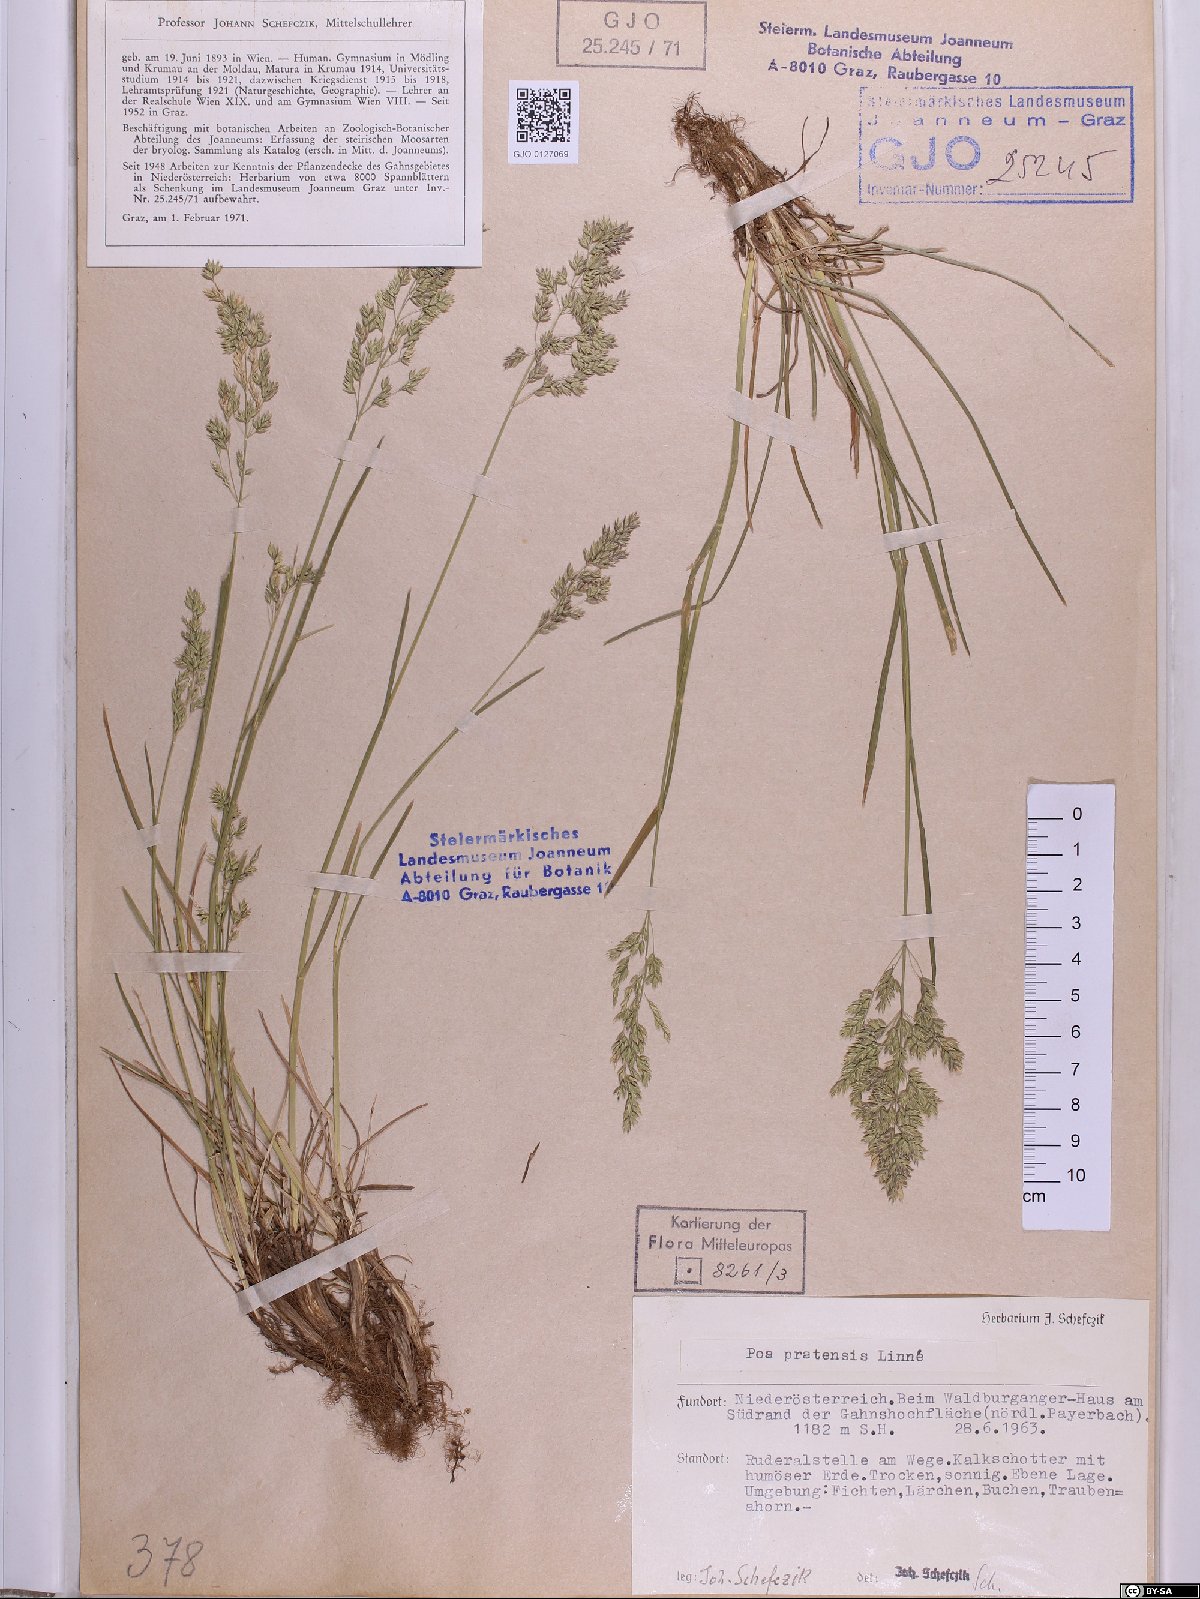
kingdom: Plantae
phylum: Tracheophyta
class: Liliopsida
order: Poales
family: Poaceae
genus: Poa
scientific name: Poa pratensis
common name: Kentucky bluegrass
